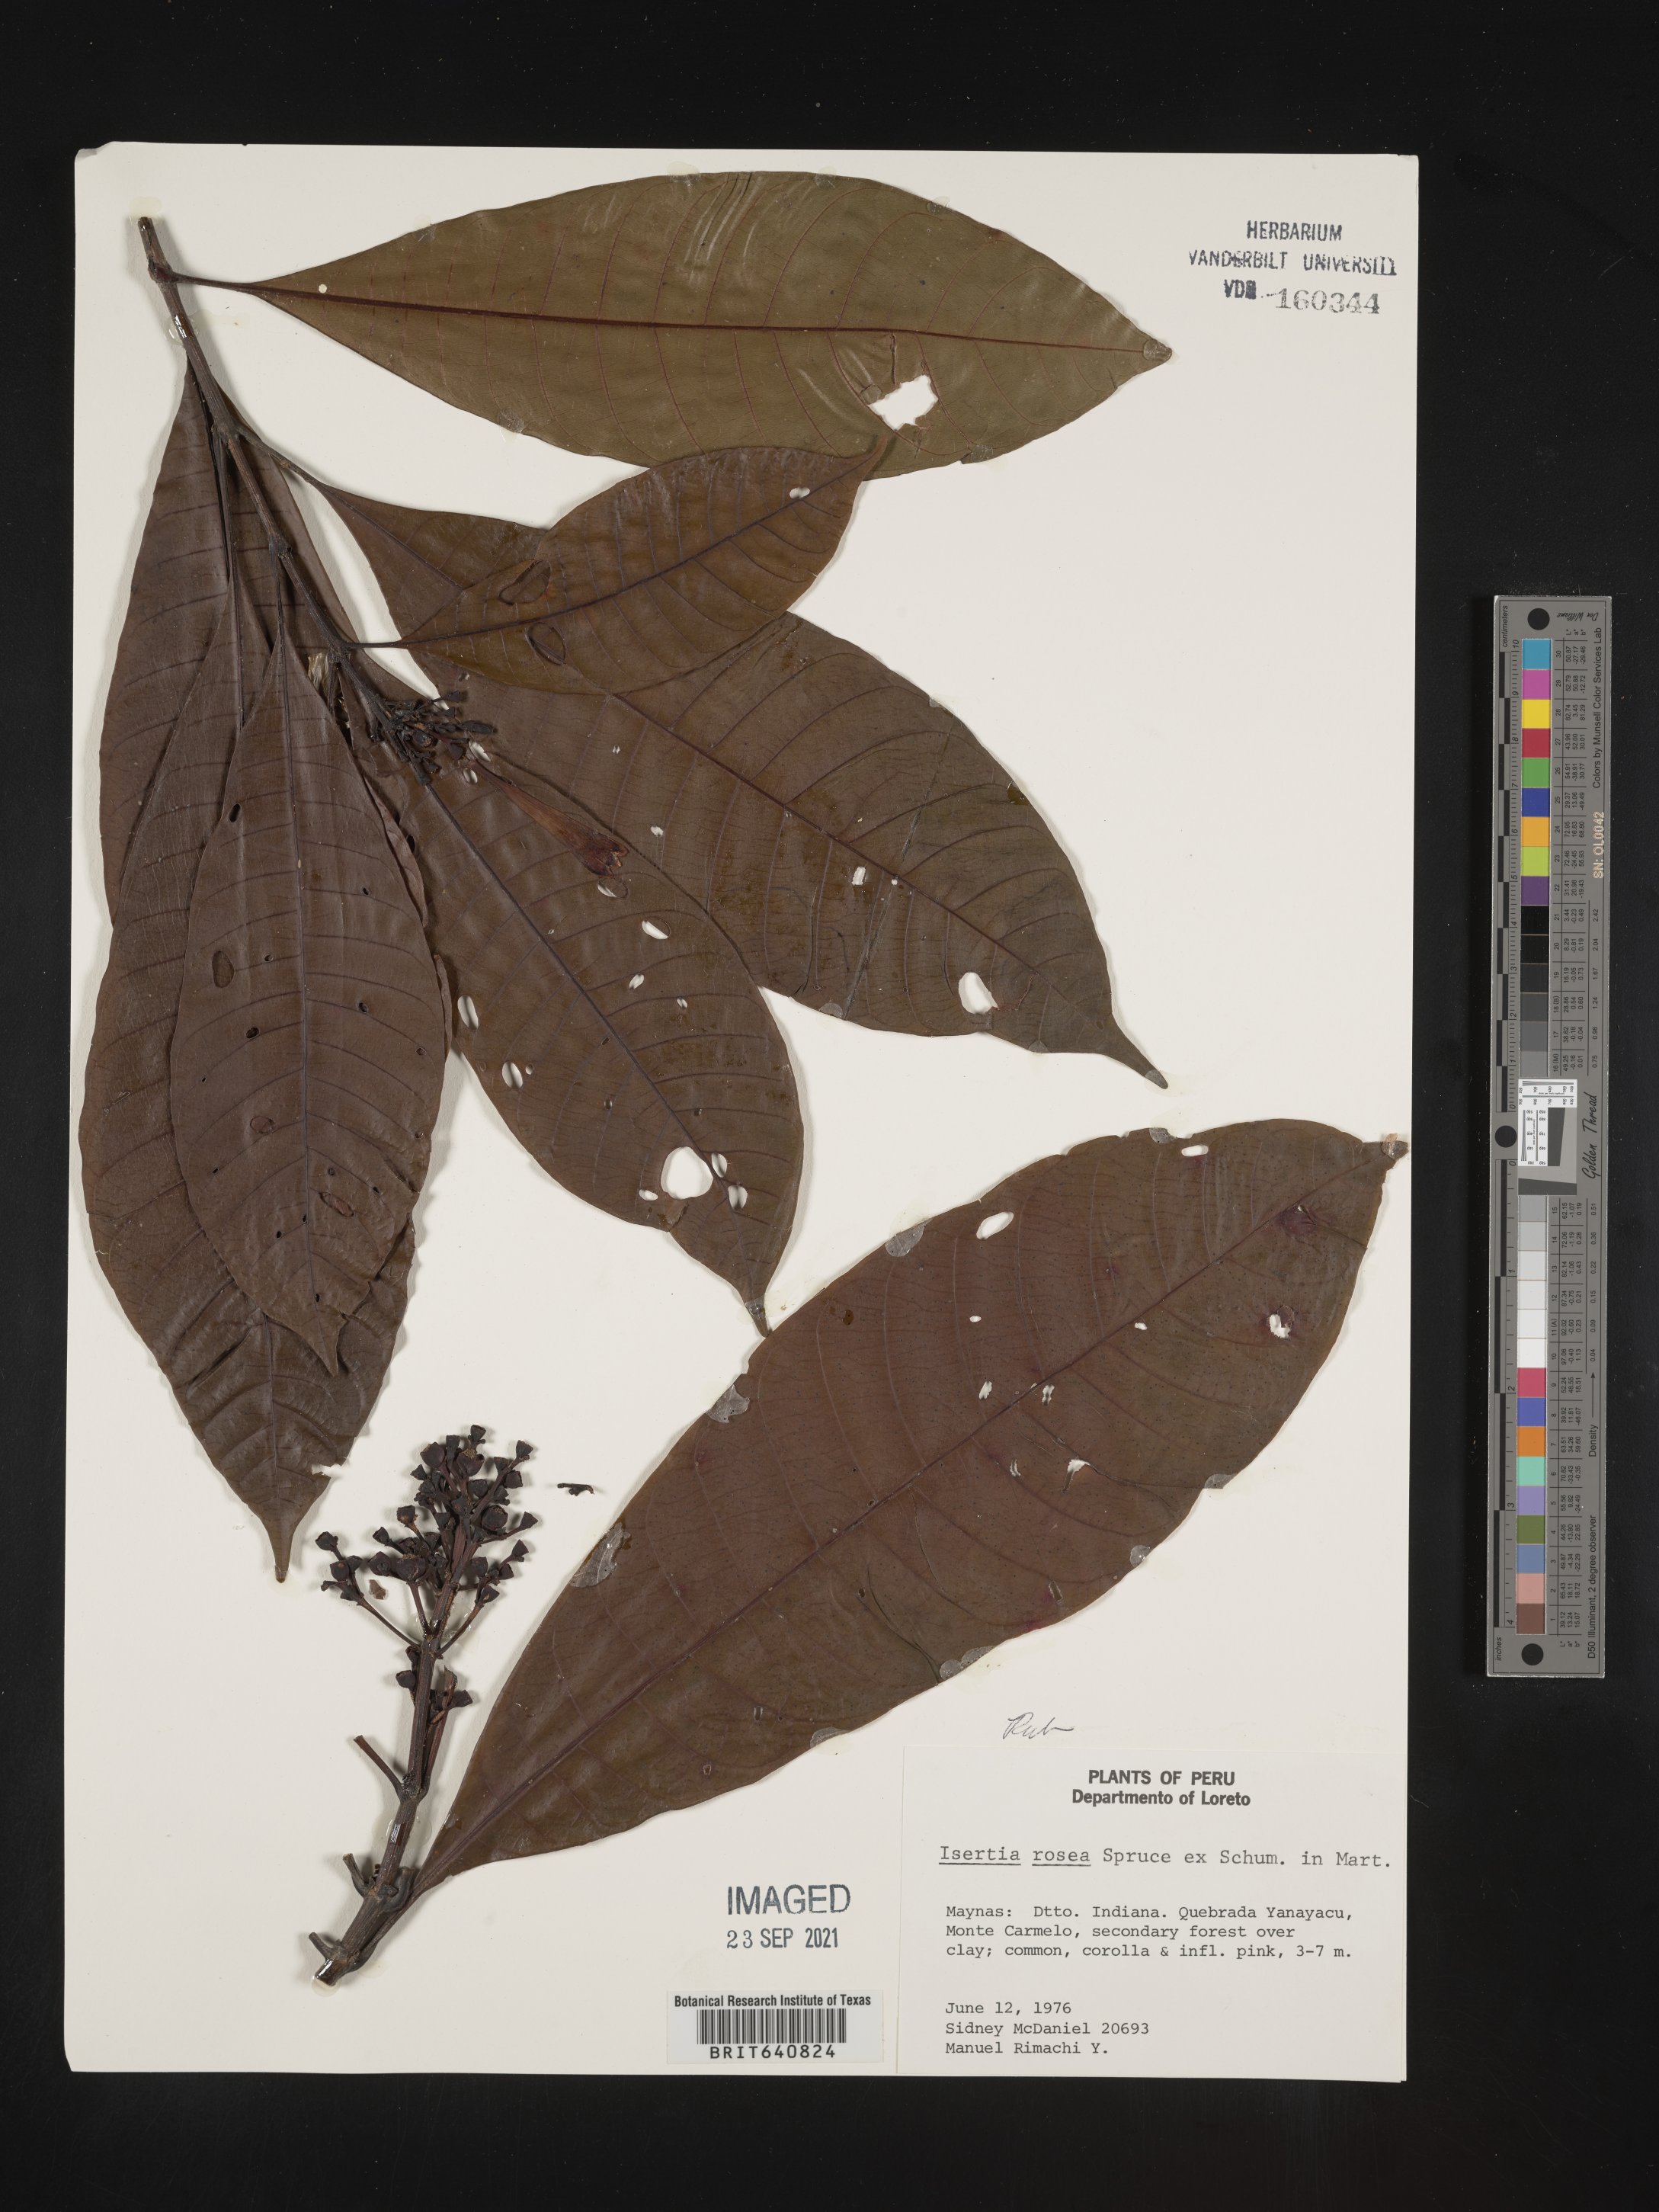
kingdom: Plantae
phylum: Tracheophyta
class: Magnoliopsida
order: Gentianales
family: Rubiaceae
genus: Isertia
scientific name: Isertia
